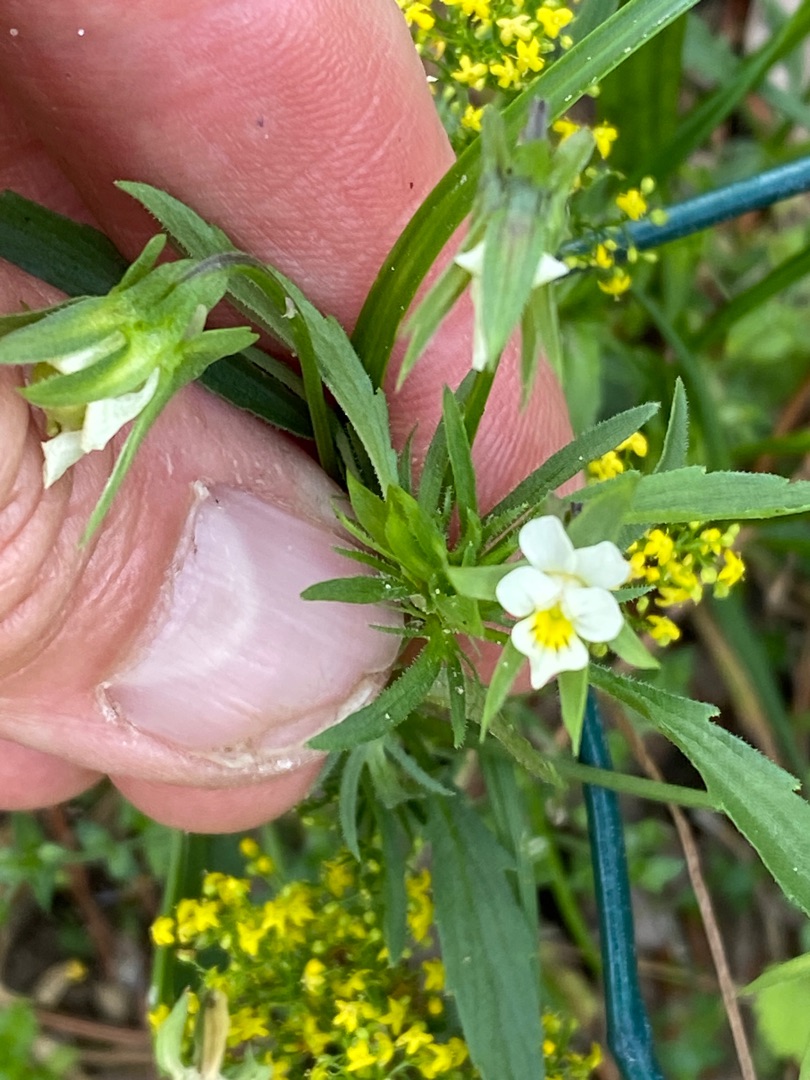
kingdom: Plantae
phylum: Tracheophyta
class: Magnoliopsida
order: Malpighiales
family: Violaceae
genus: Viola
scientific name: Viola arvensis
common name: Ager-stedmoderblomst
